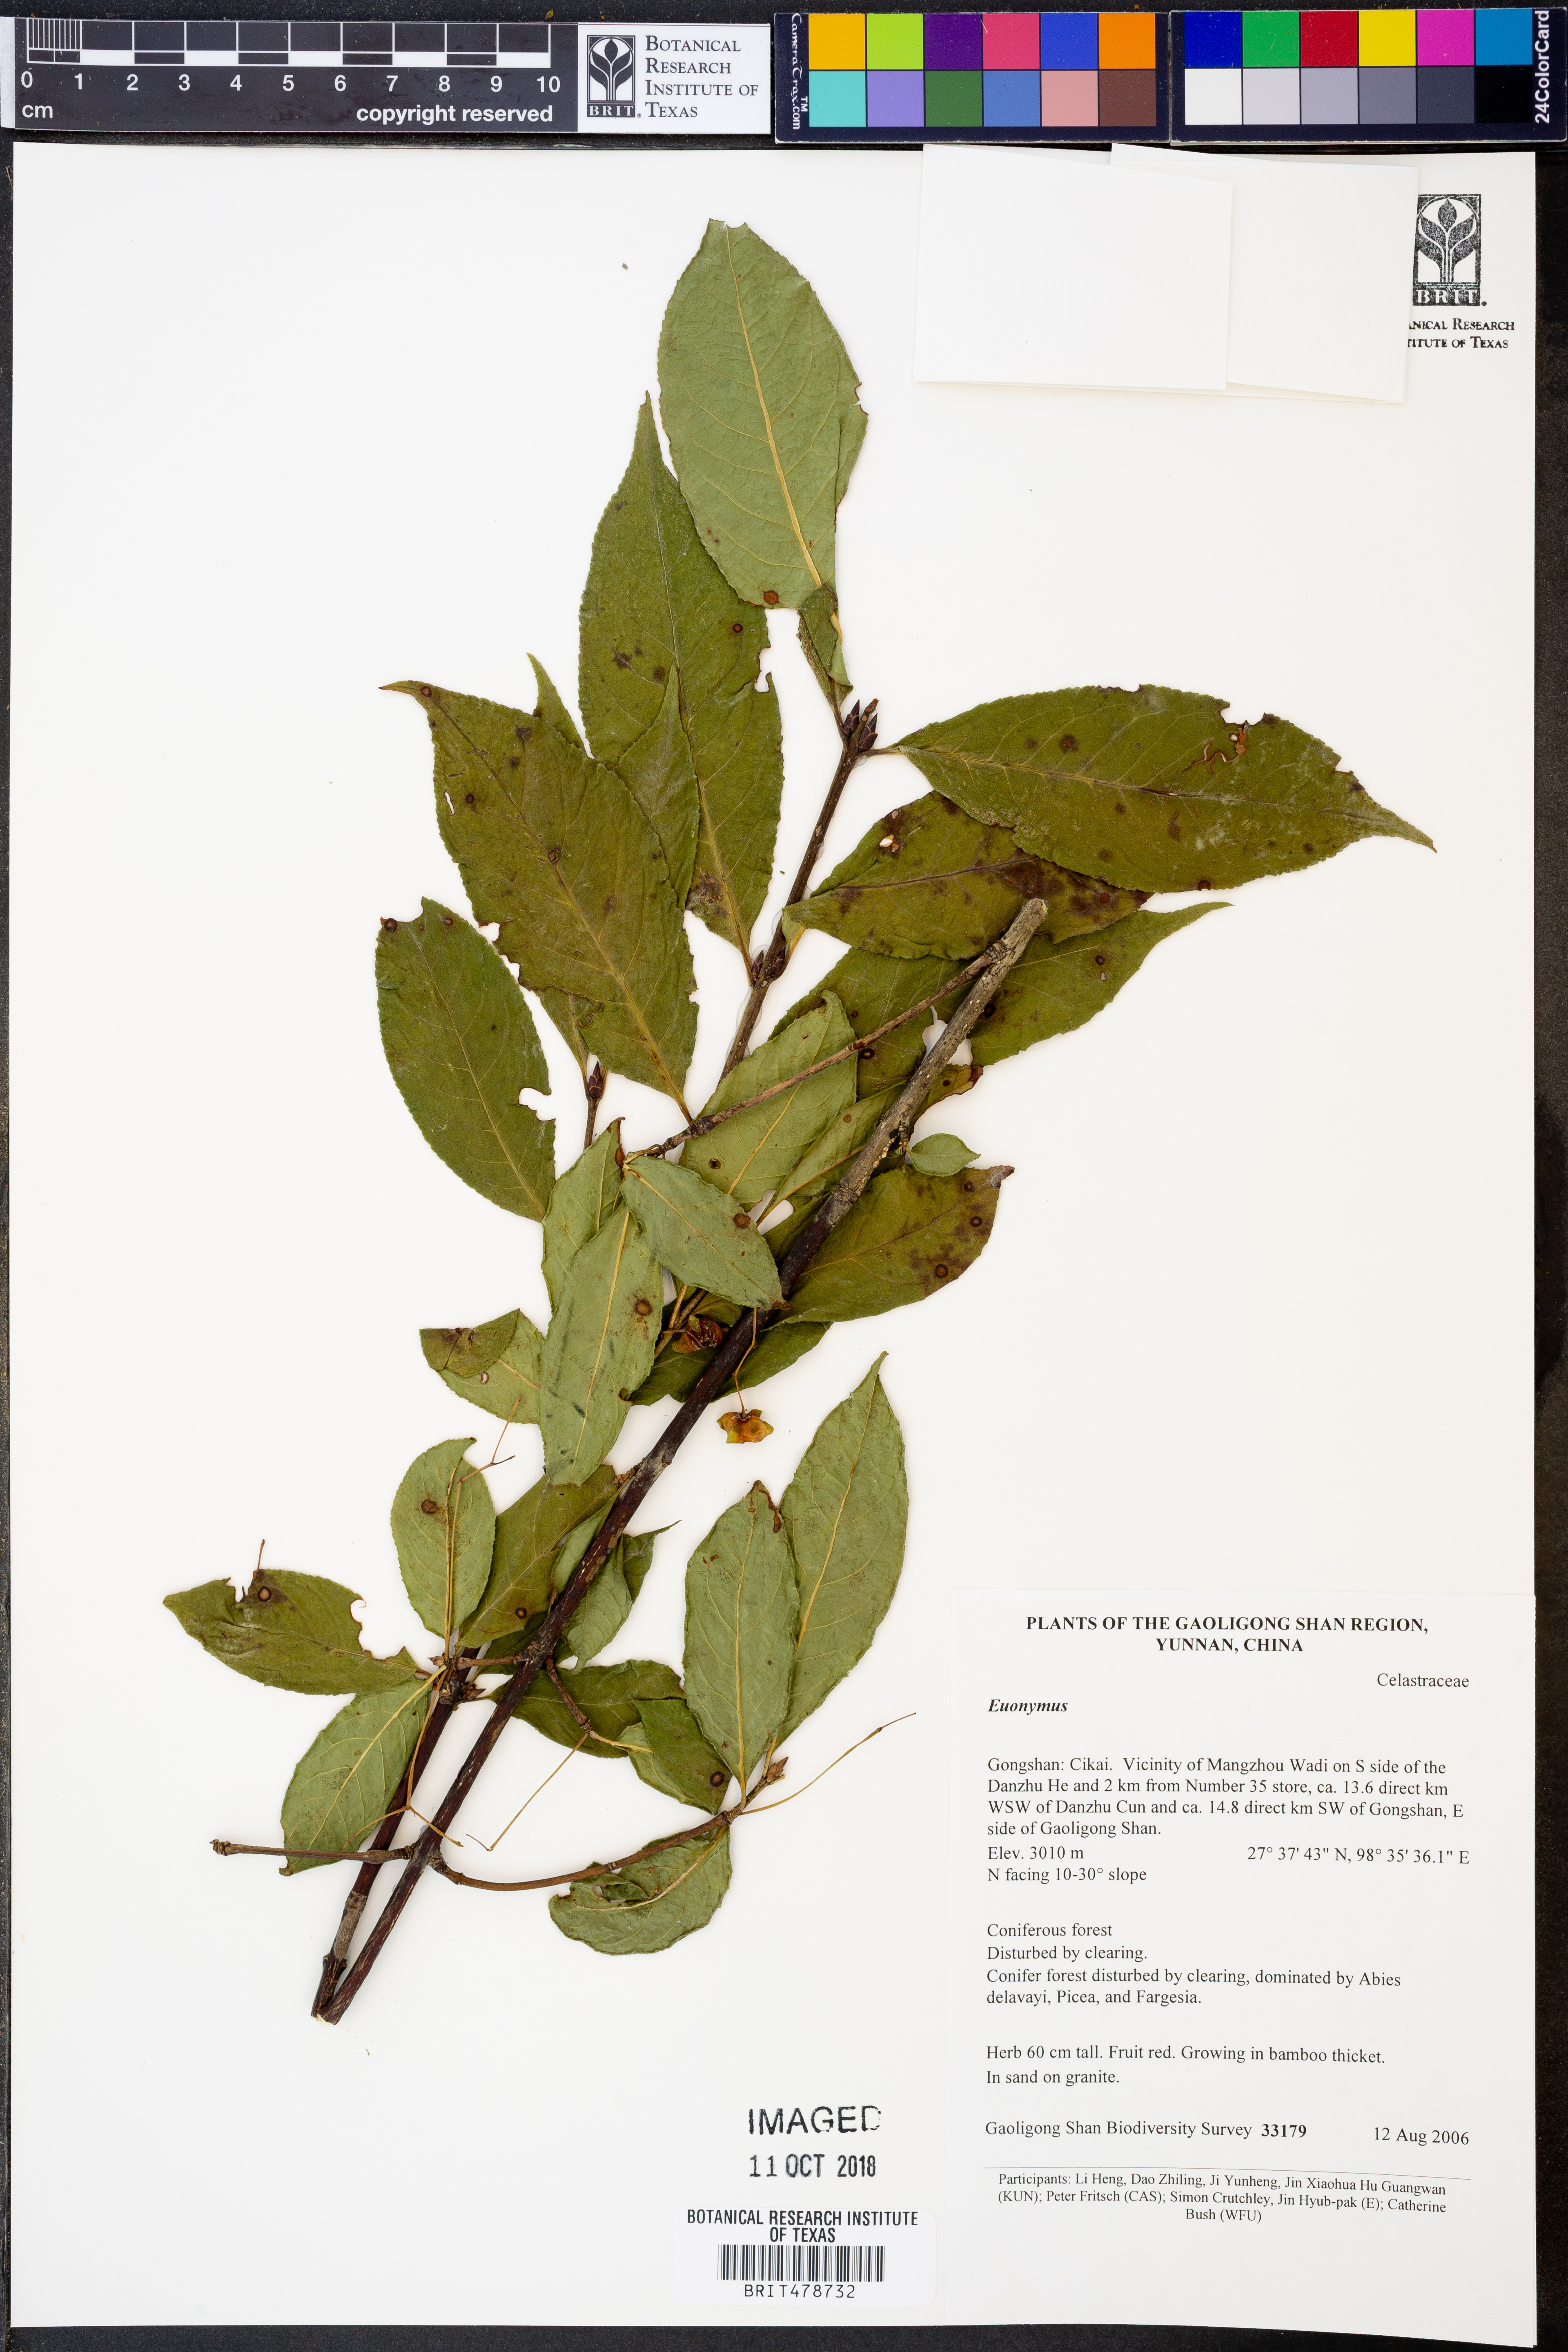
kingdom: Plantae
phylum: Tracheophyta
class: Magnoliopsida
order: Celastrales
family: Celastraceae
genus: Euonymus
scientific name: Euonymus frigidus
